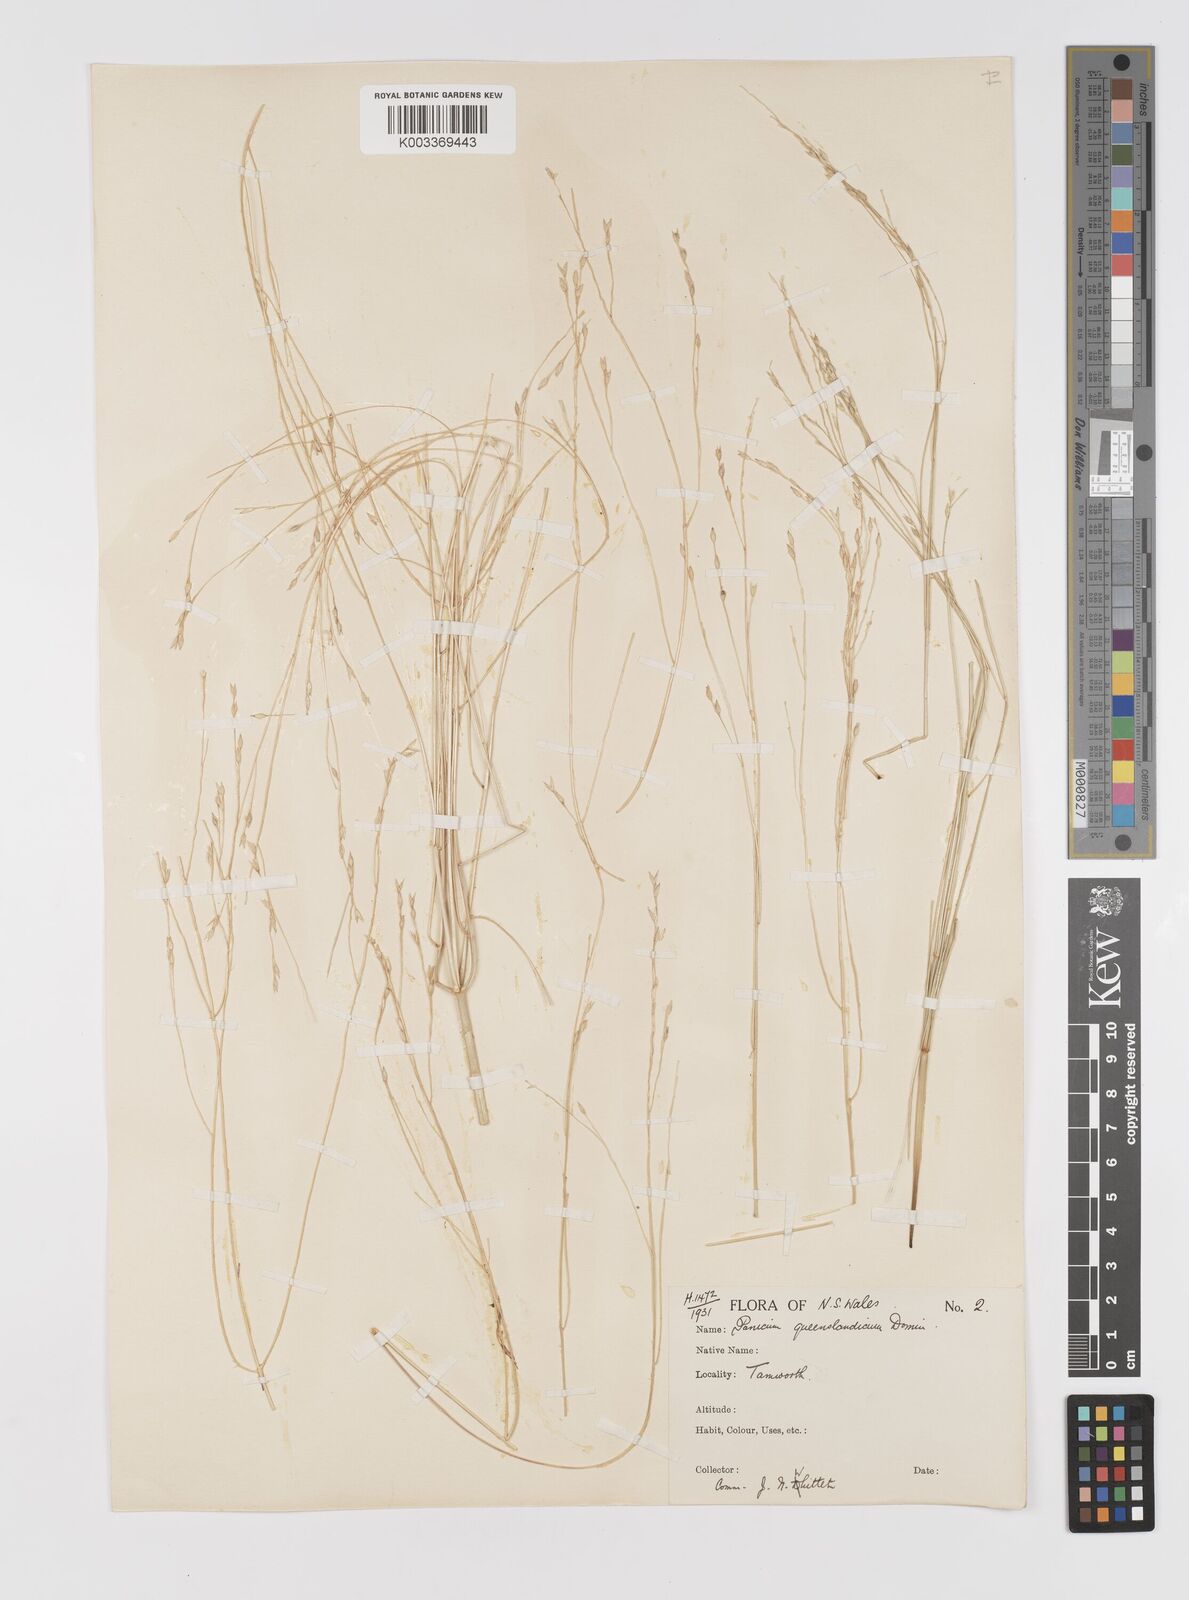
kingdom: Plantae
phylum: Tracheophyta
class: Liliopsida
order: Poales
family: Poaceae
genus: Panicum
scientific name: Panicum queenslandicum
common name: Yabila grass
